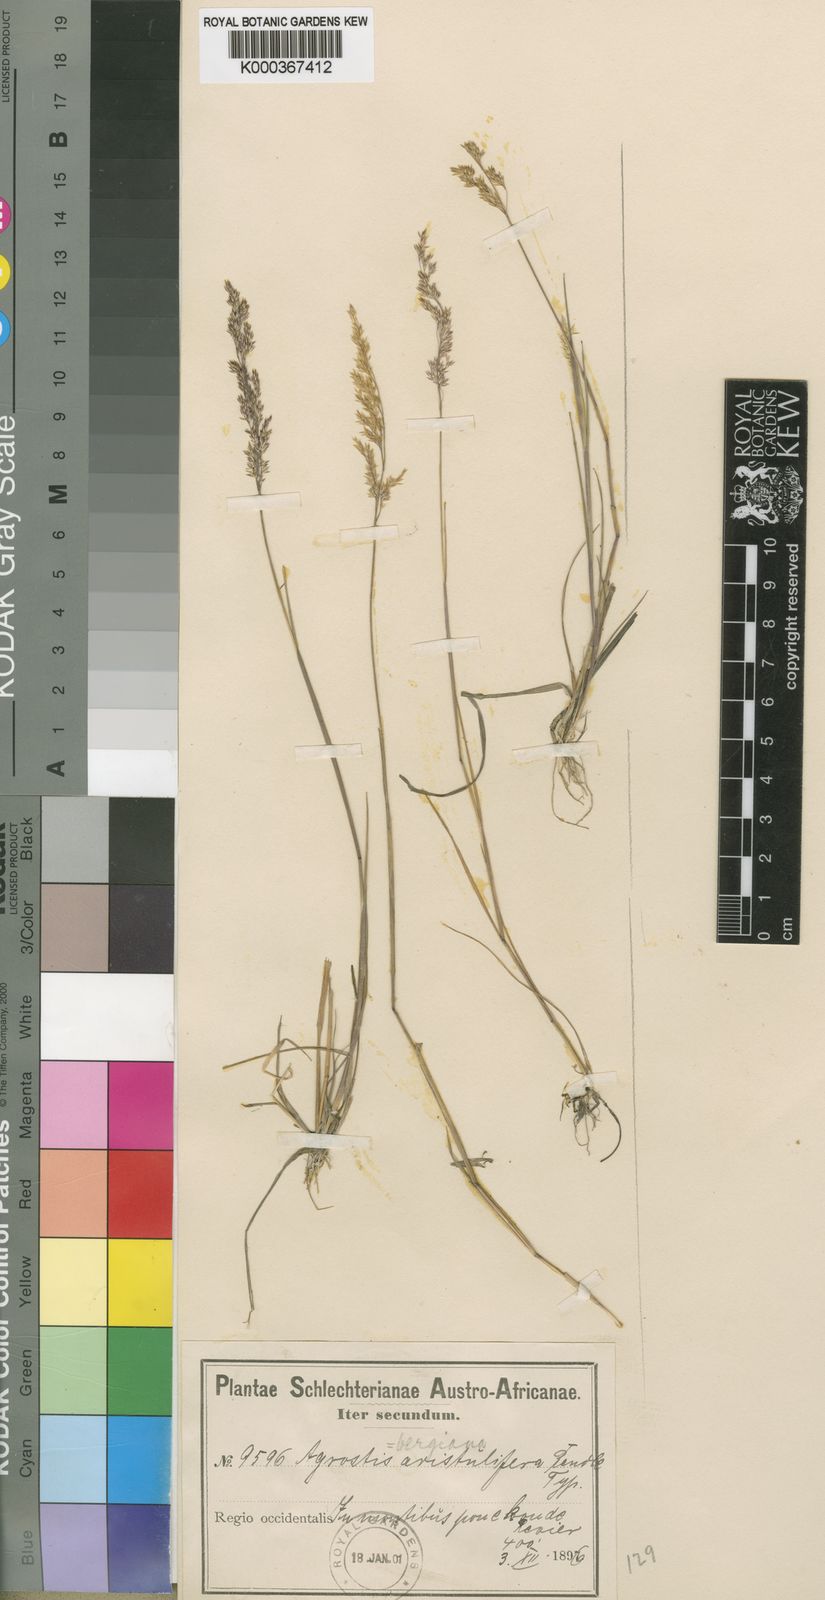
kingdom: Plantae
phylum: Tracheophyta
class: Liliopsida
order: Poales
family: Poaceae
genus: Agrostis
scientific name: Agrostis bergiana
